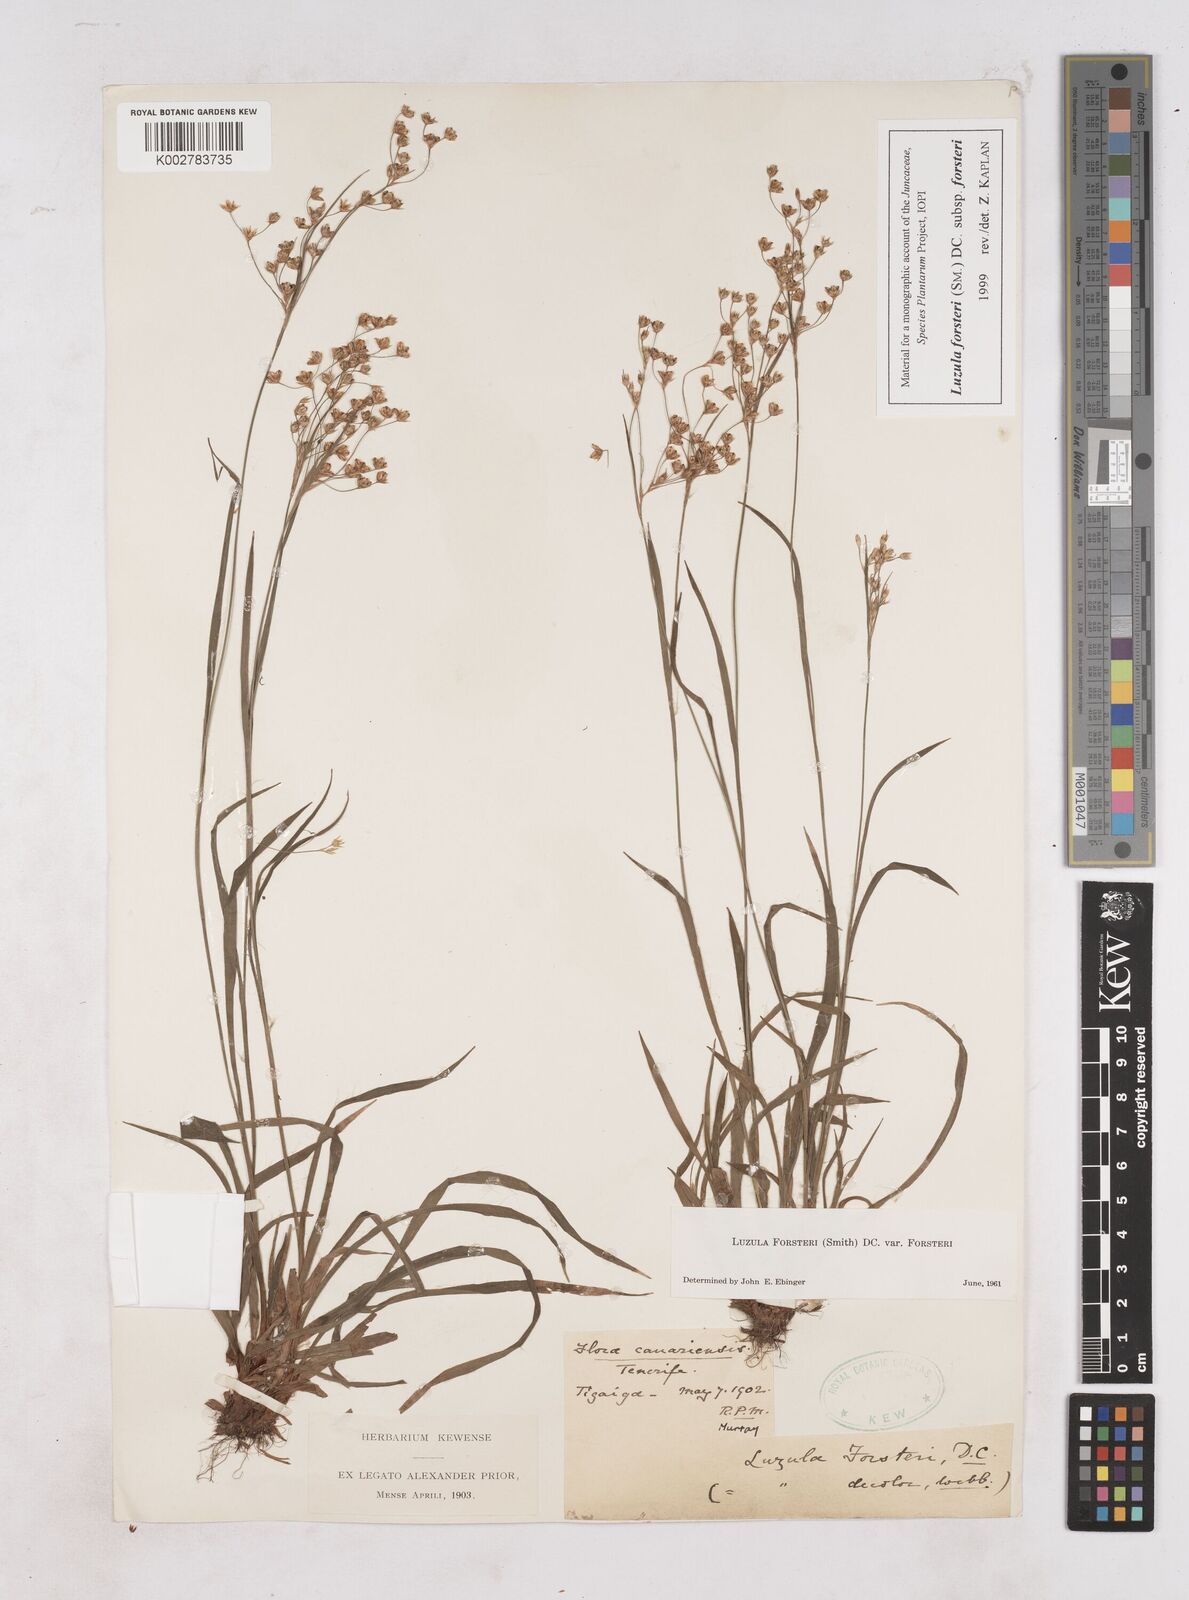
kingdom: Plantae
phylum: Tracheophyta
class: Liliopsida
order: Poales
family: Juncaceae
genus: Luzula
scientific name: Luzula forsteri
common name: Southern wood-rush
